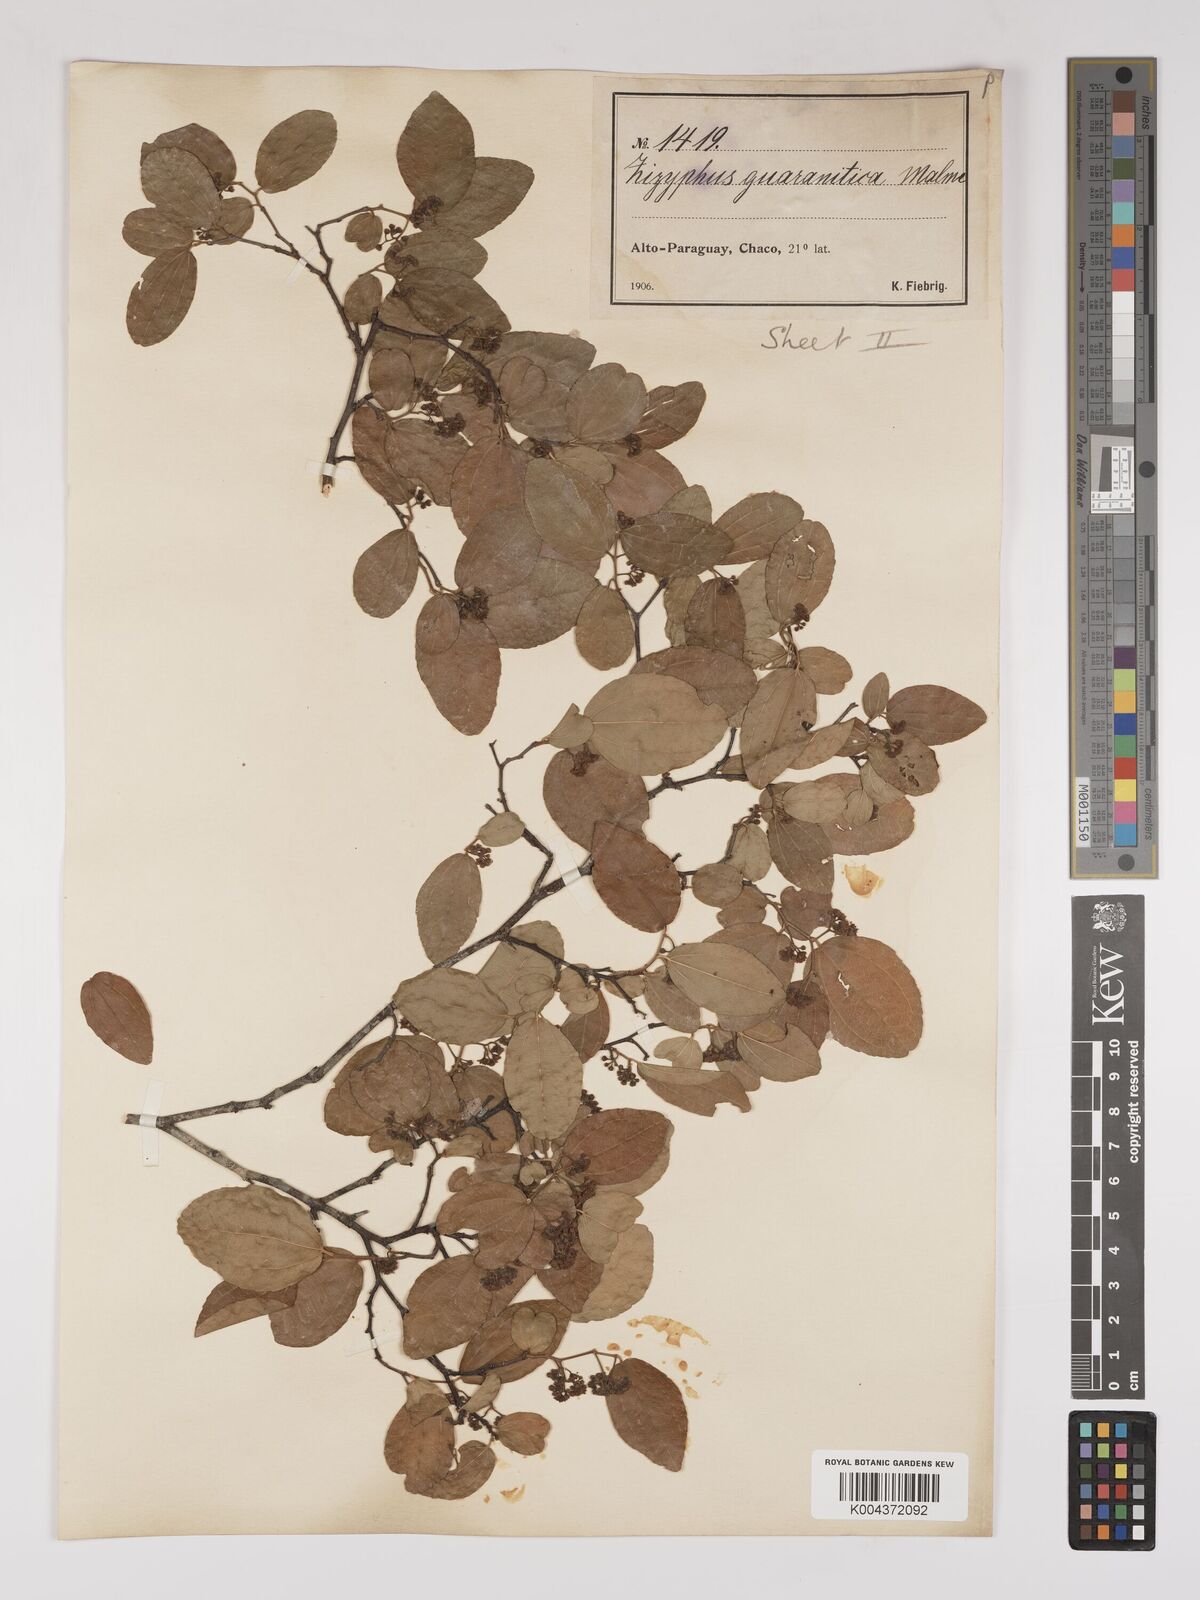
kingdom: Plantae
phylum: Tracheophyta
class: Magnoliopsida
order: Rosales
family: Rhamnaceae
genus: Ziziphus
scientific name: Ziziphus guaranitica
